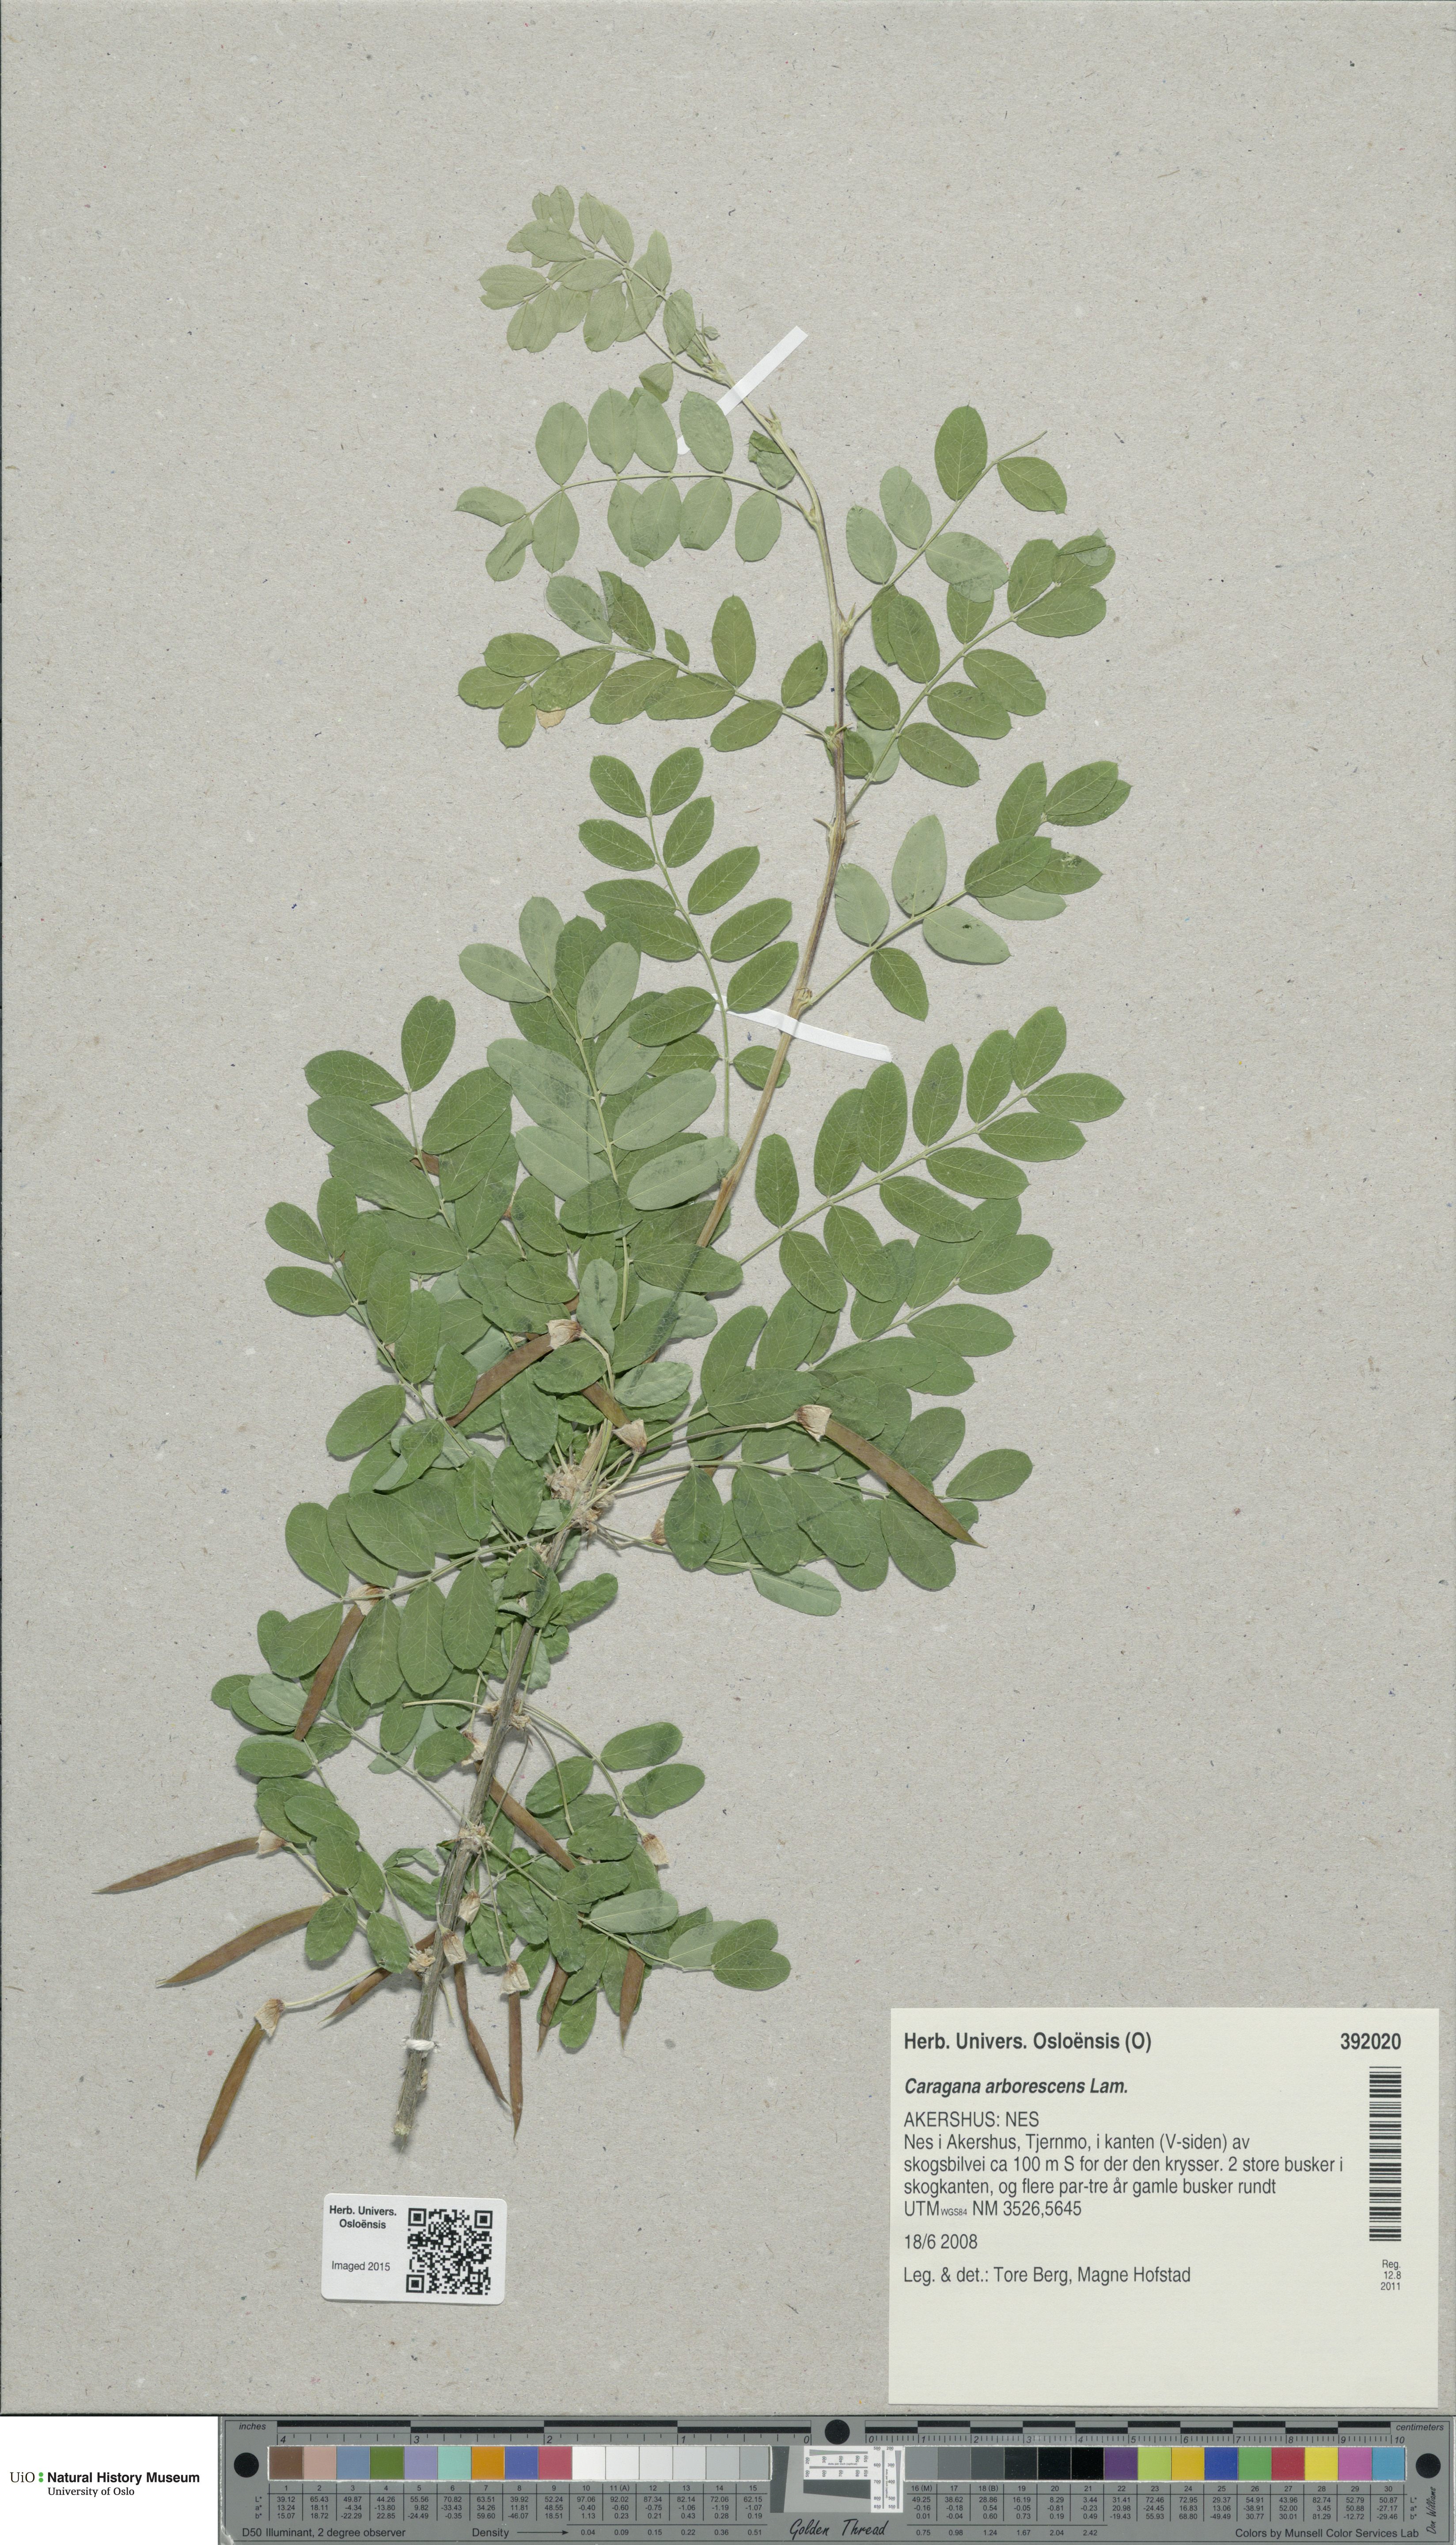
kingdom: Plantae
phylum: Tracheophyta
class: Magnoliopsida
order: Fabales
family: Fabaceae
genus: Caragana
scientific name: Caragana arborescens
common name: Siberian peashrub
